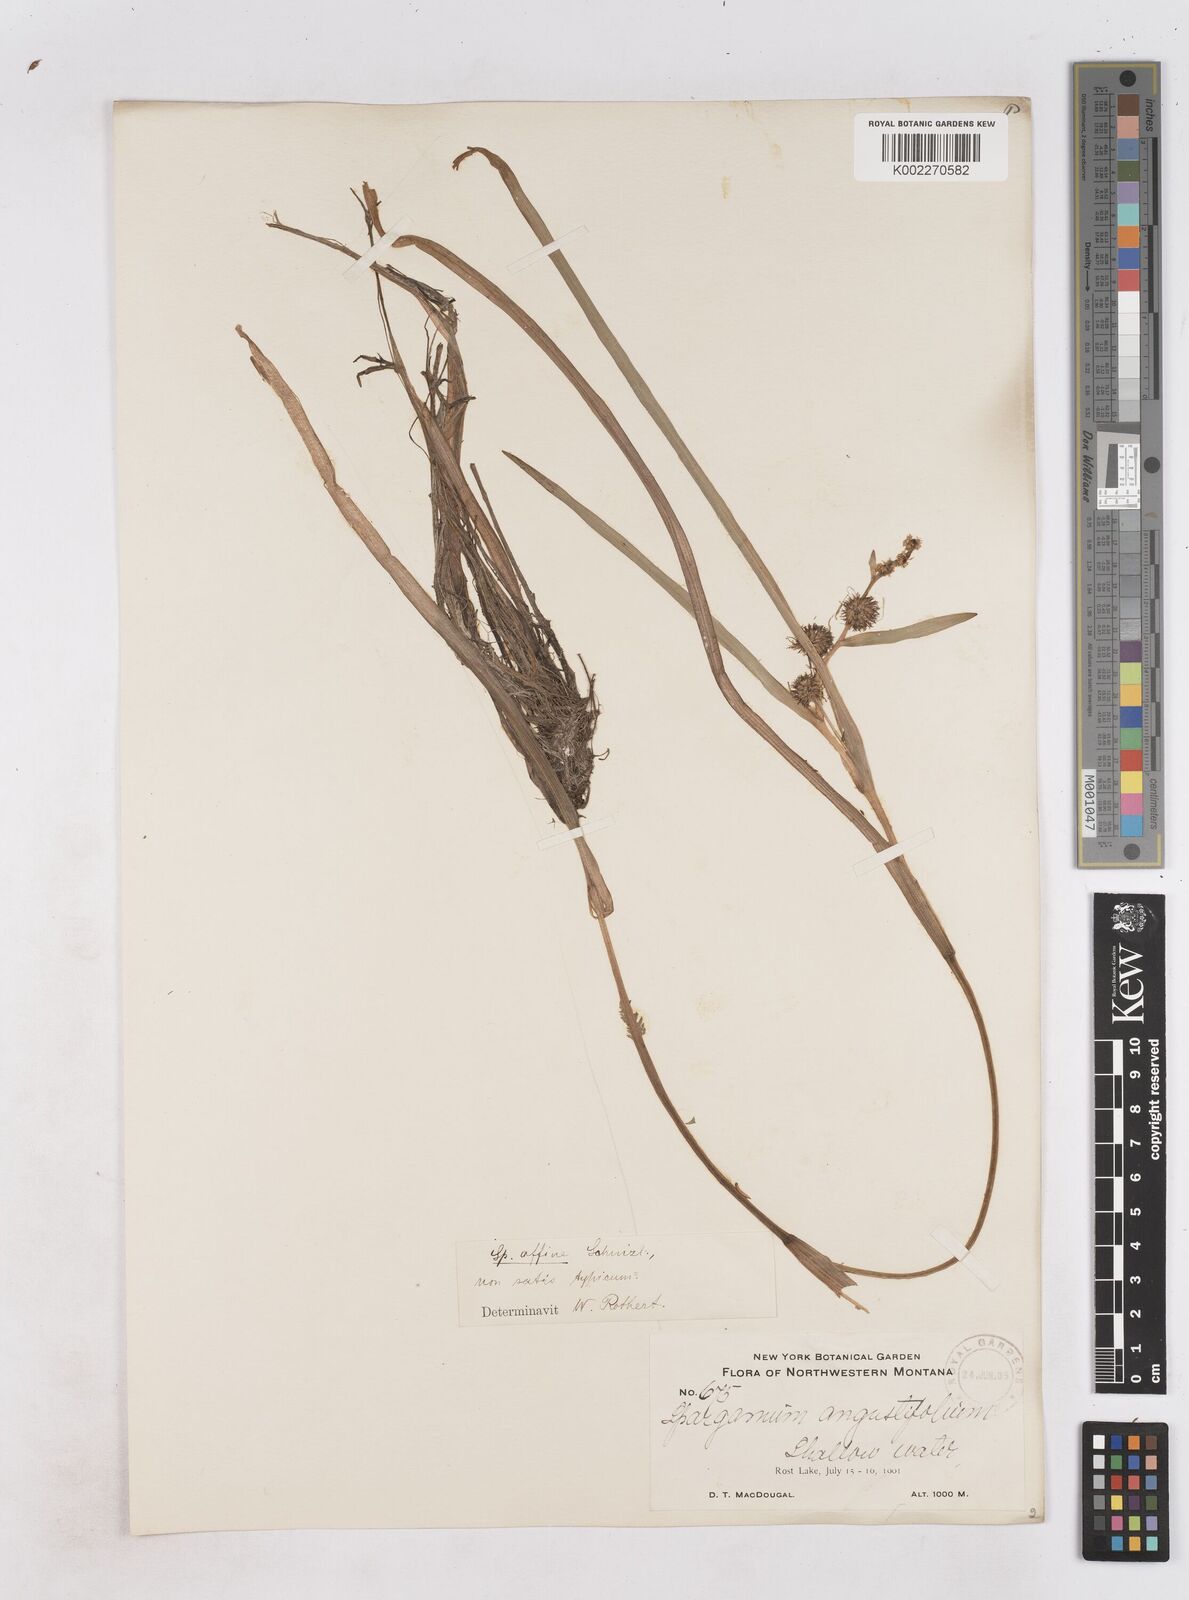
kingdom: Plantae
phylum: Tracheophyta
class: Liliopsida
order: Poales
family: Typhaceae
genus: Sparganium
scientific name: Sparganium angustifolium
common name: Floating bur-reed
